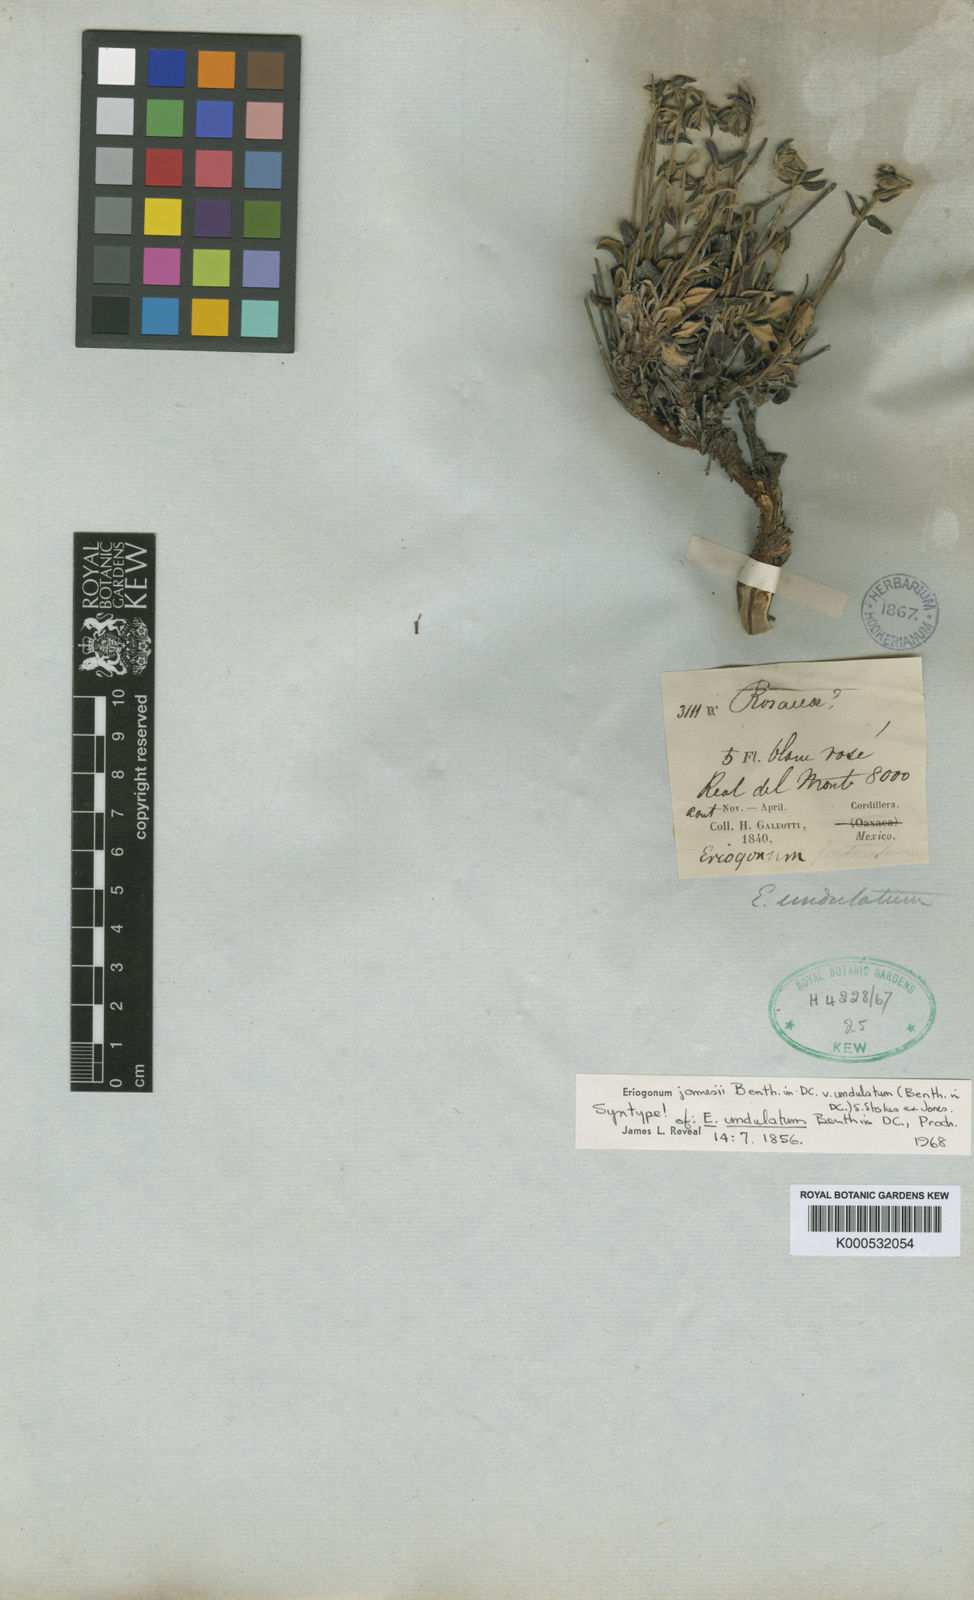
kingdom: Plantae
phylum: Tracheophyta
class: Magnoliopsida
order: Caryophyllales
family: Polygonaceae
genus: Eriogonum
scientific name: Eriogonum jamesii
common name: Antelope-sage
